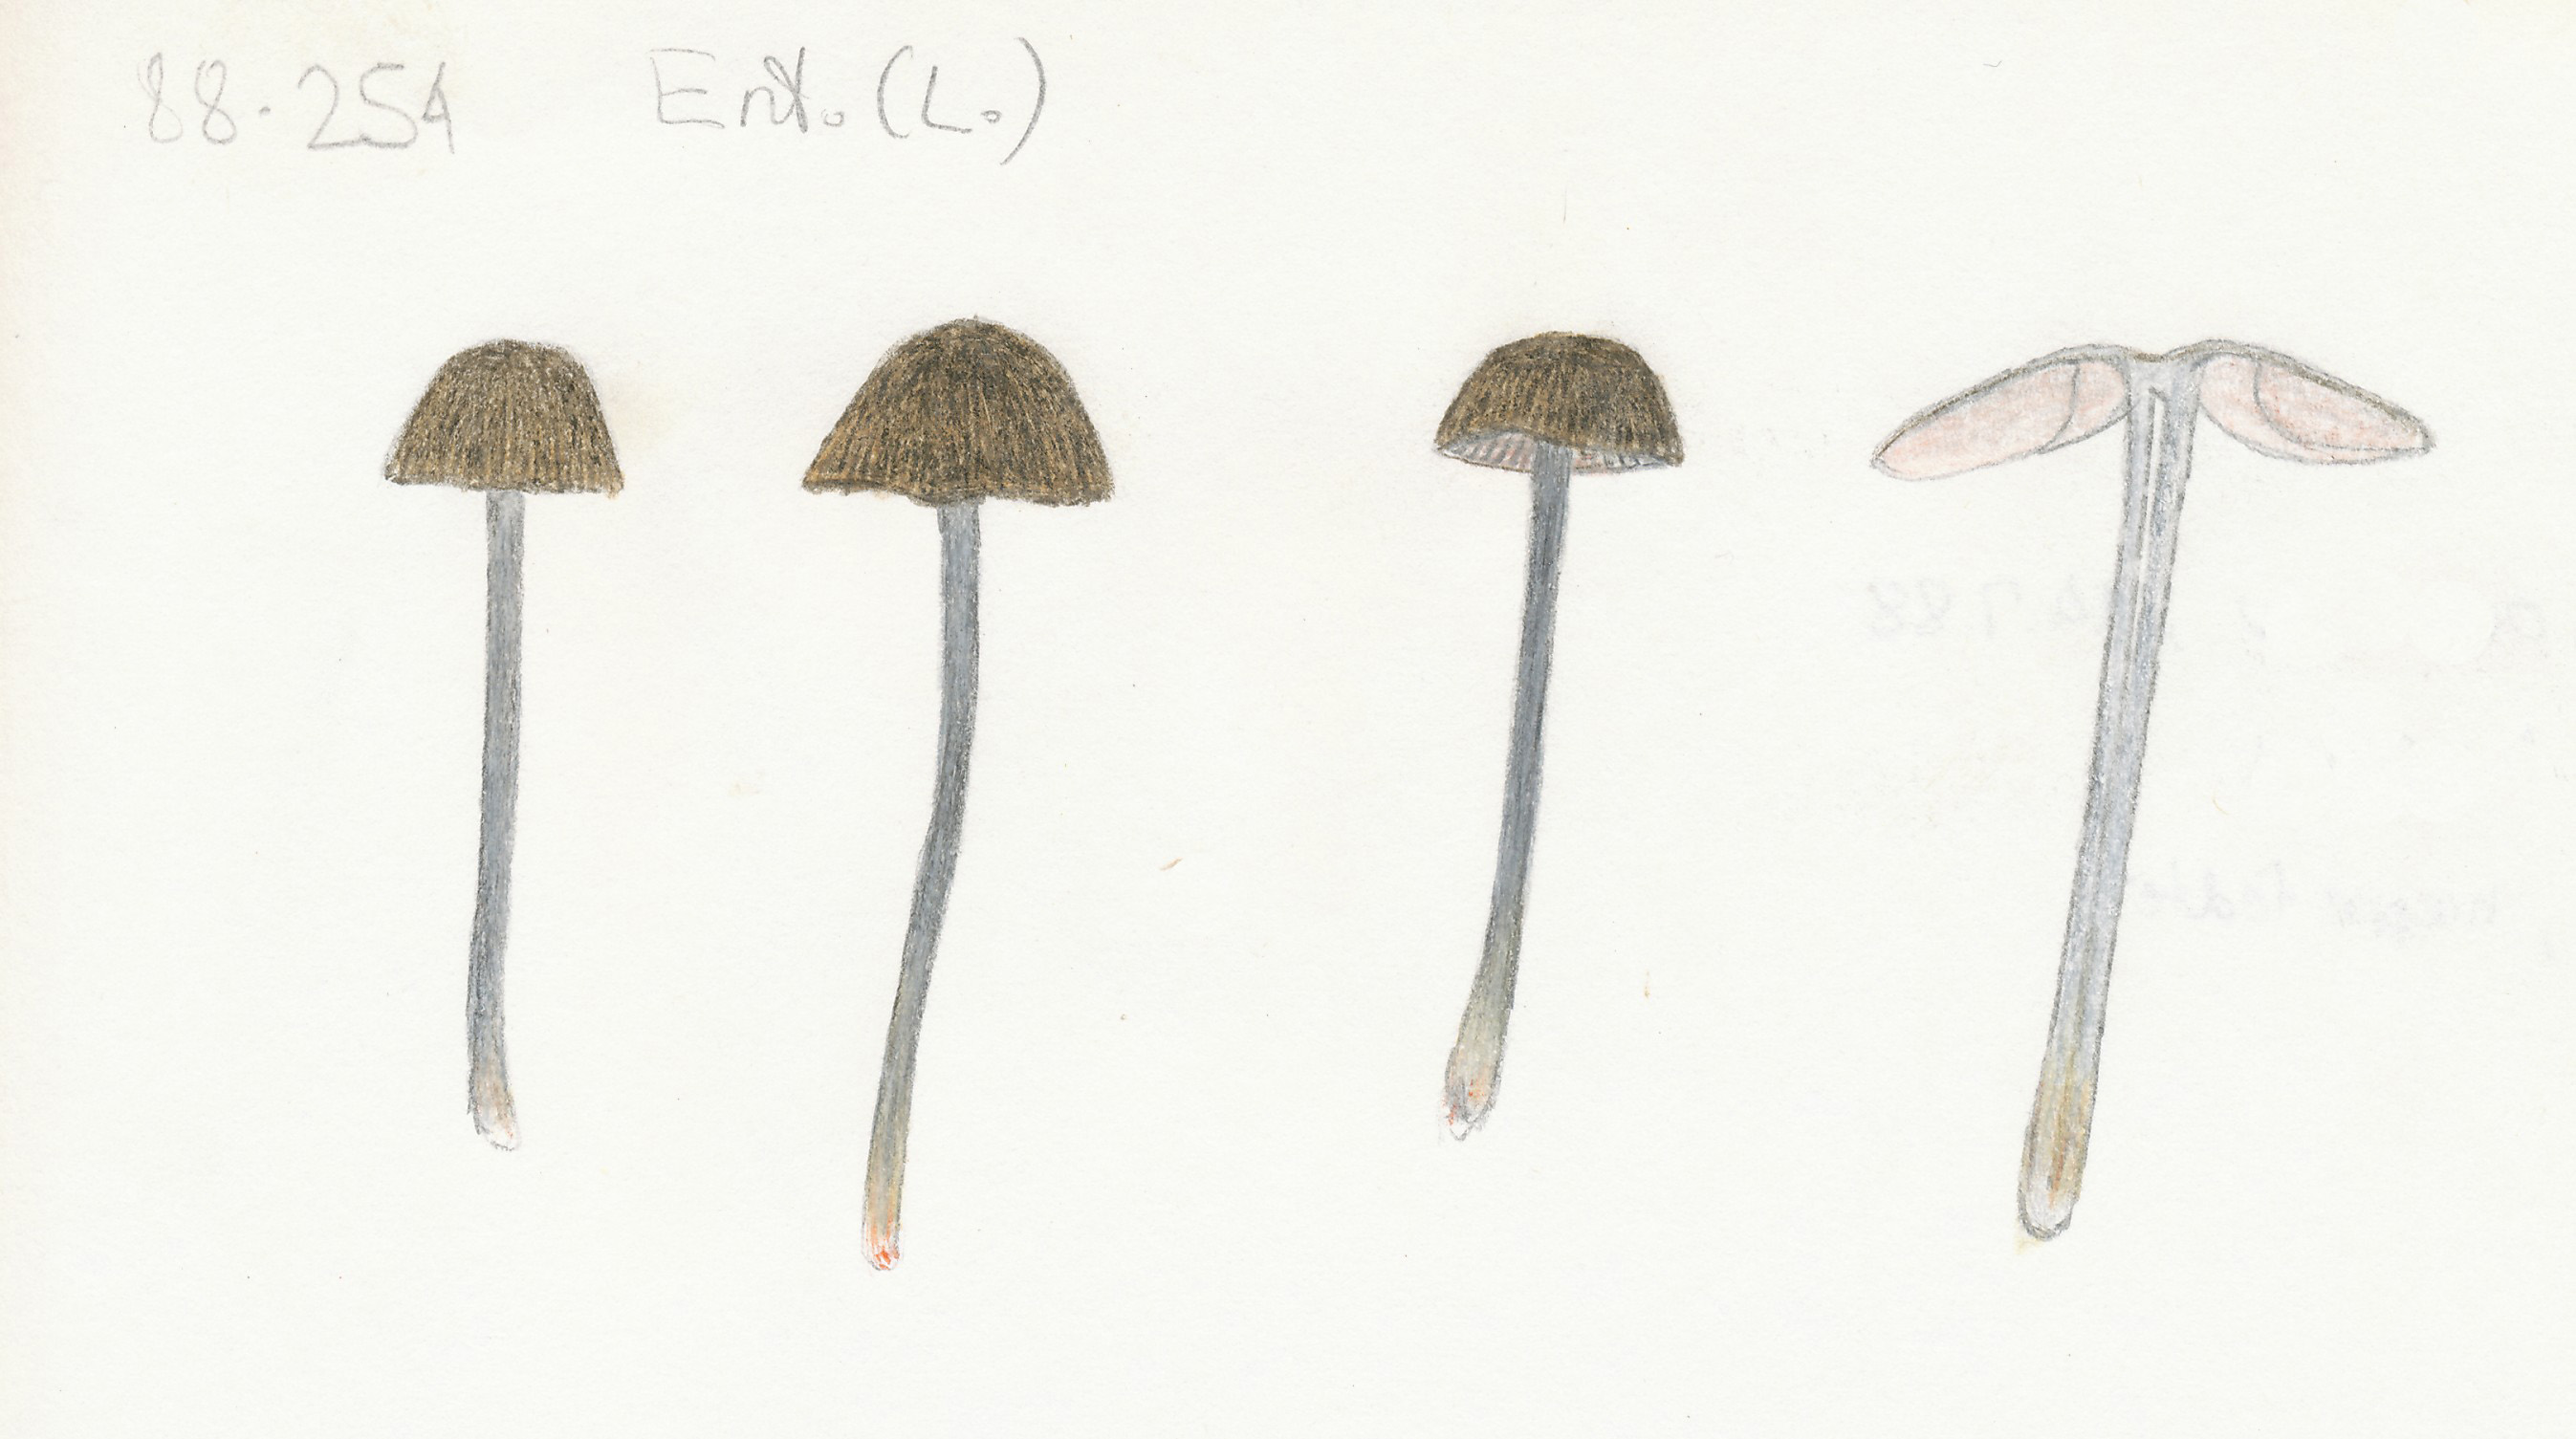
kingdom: Fungi
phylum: Basidiomycota
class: Agaricomycetes
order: Agaricales
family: Entolomataceae
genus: Entoloma
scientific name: Entoloma asprellum
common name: ru rødblad
